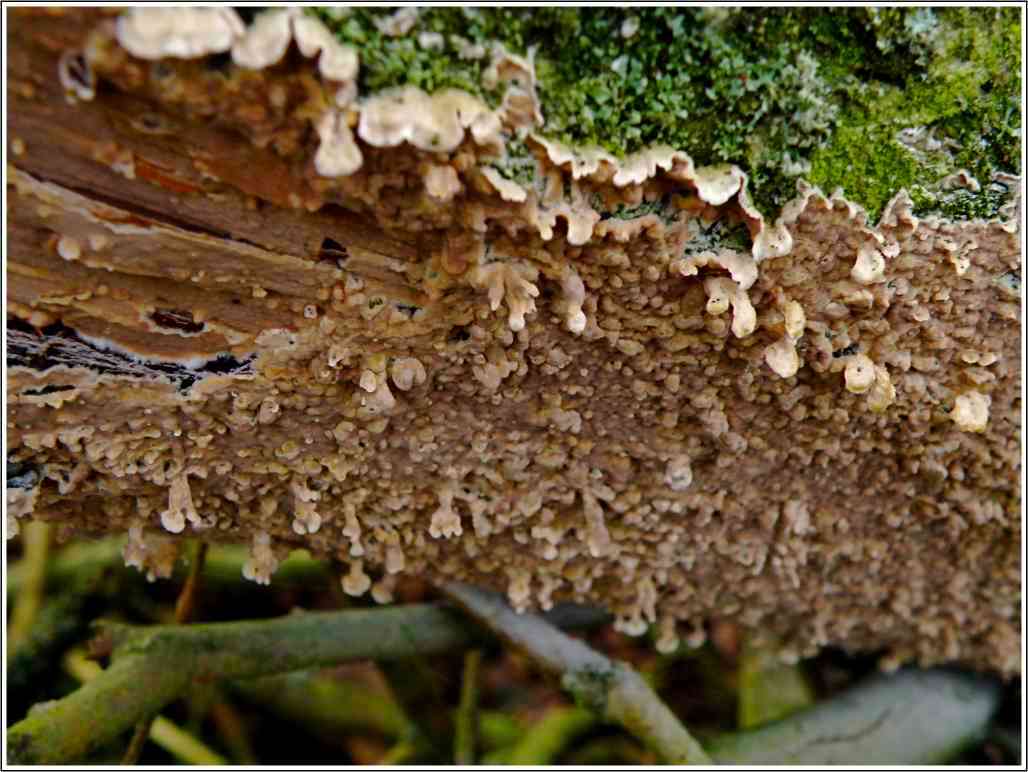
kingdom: Fungi
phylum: Basidiomycota
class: Agaricomycetes
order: Agaricales
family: Physalacriaceae
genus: Cylindrobasidium
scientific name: Cylindrobasidium evolvens
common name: sprækkehinde
